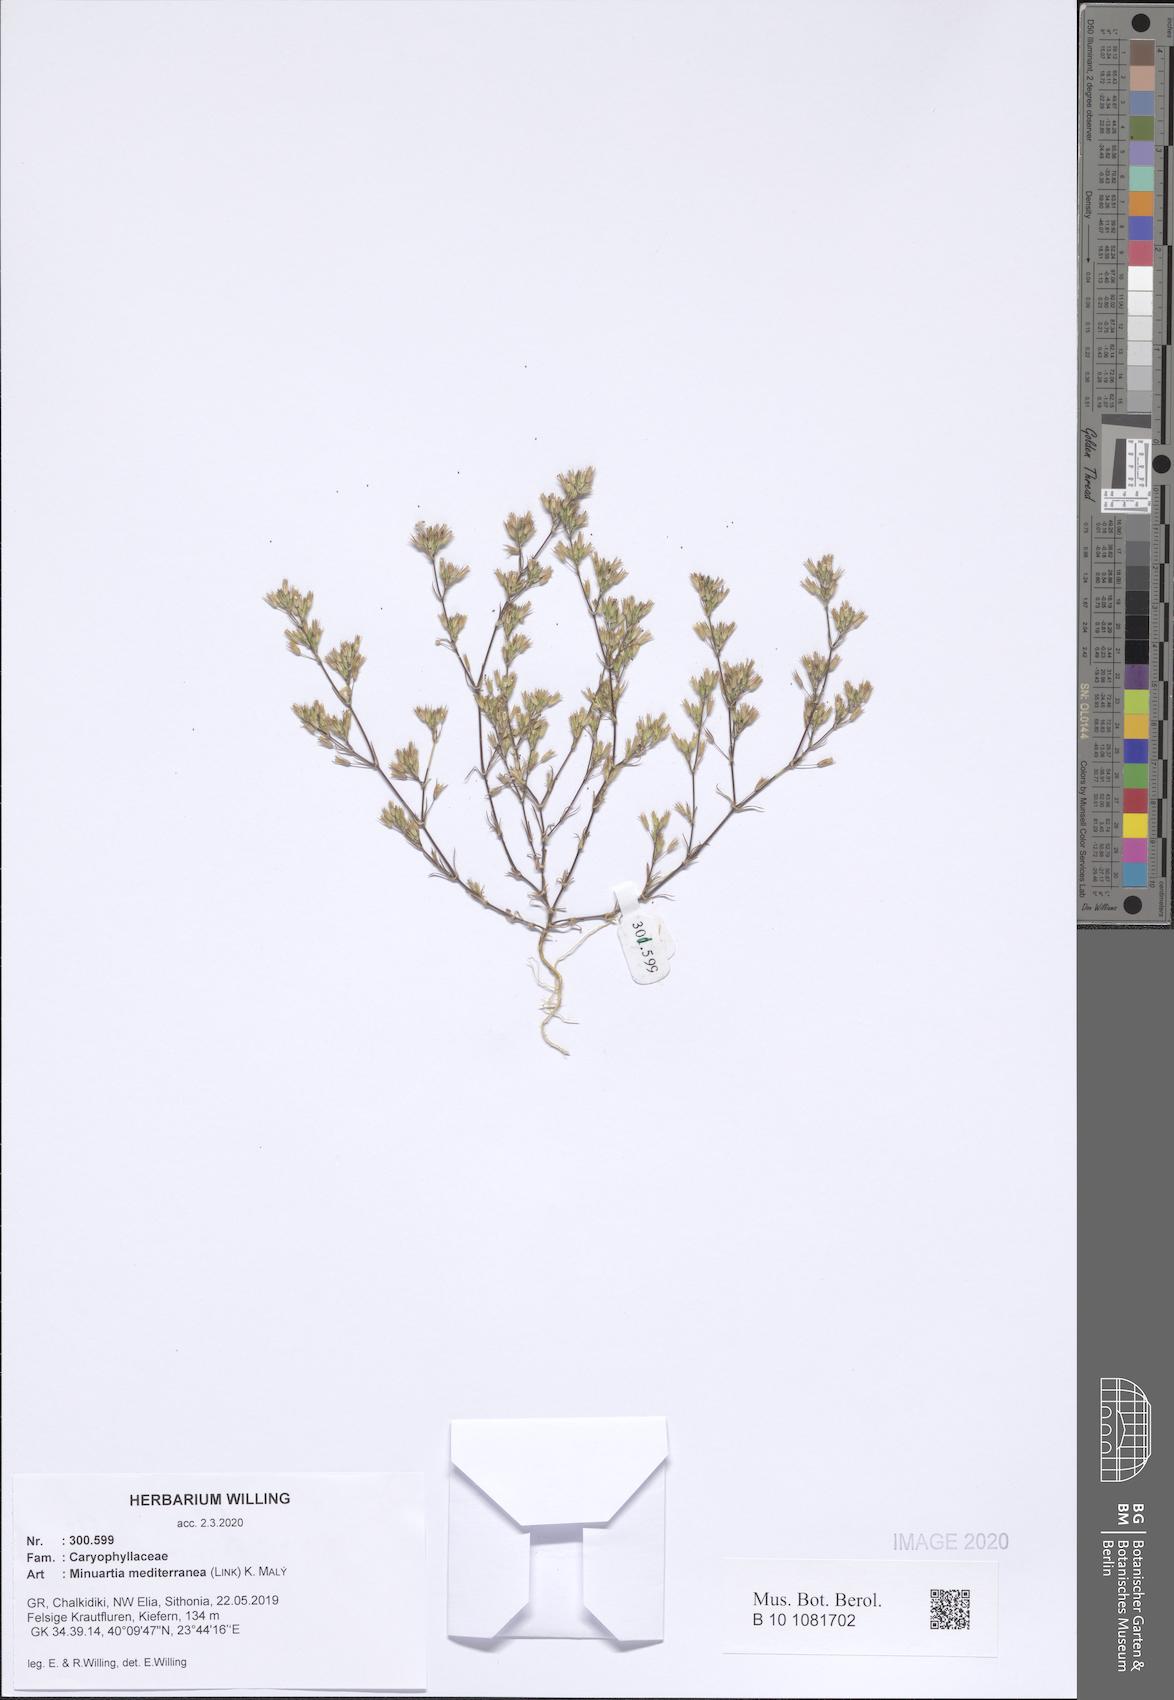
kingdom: Plantae
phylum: Tracheophyta
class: Magnoliopsida
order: Caryophyllales
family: Caryophyllaceae
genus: Sabulina
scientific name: Sabulina mediterranea
